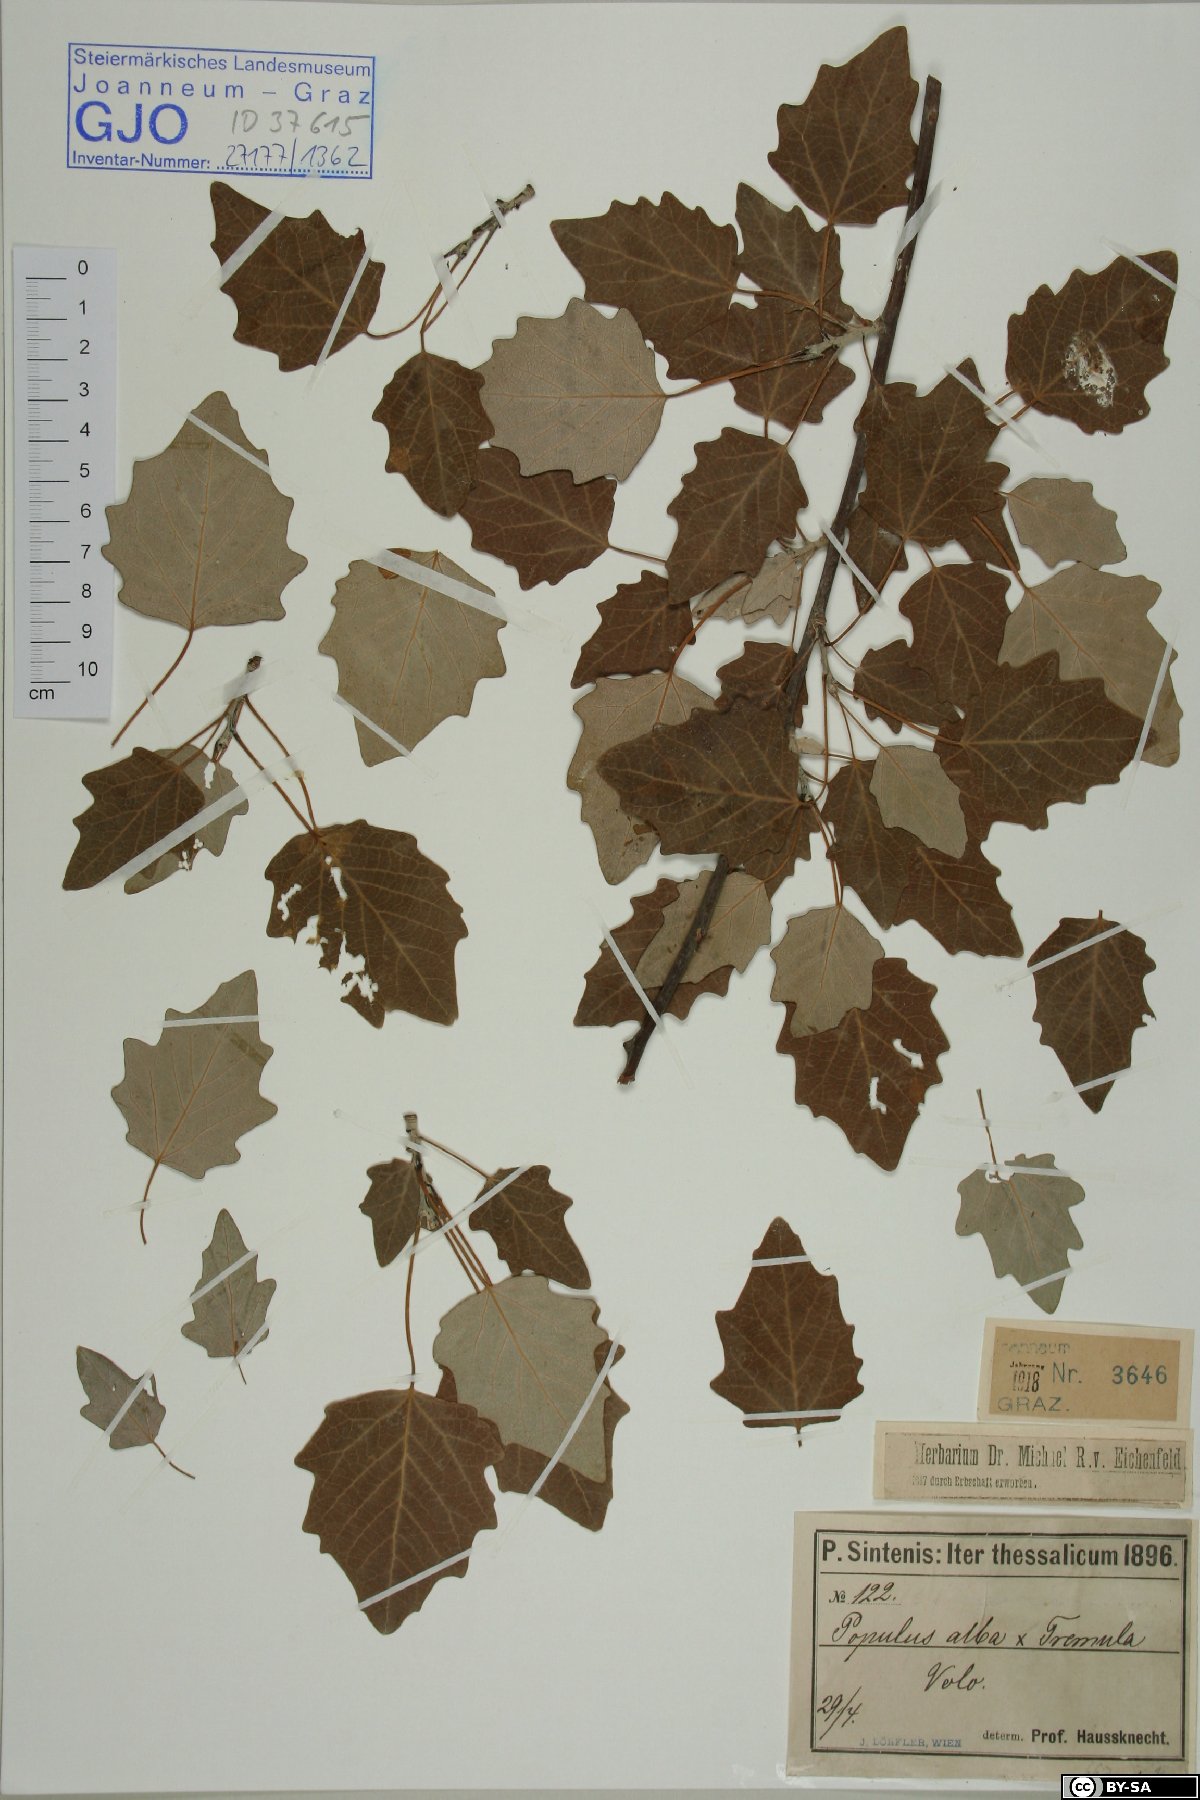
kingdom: Plantae
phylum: Tracheophyta
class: Magnoliopsida
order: Malpighiales
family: Salicaceae
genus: Populus
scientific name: Populus alba
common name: White poplar
